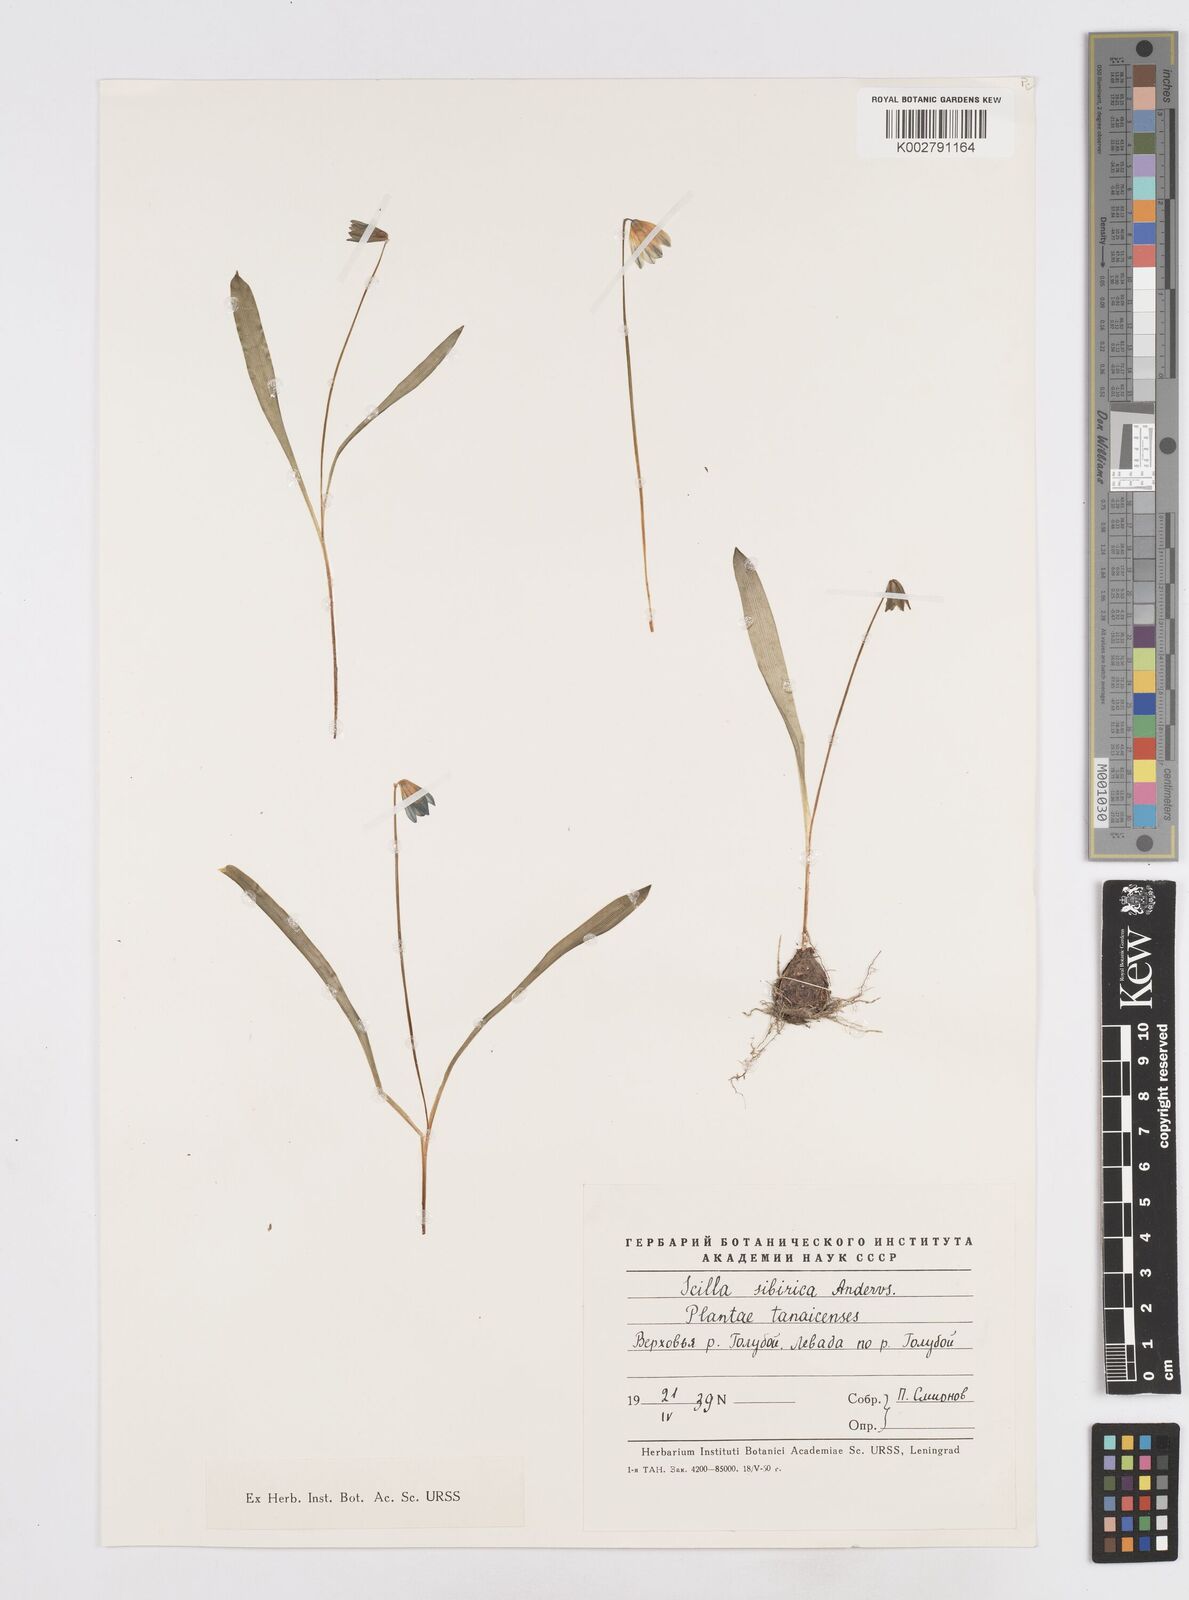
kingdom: Plantae
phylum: Tracheophyta
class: Liliopsida
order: Asparagales
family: Asparagaceae
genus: Scilla
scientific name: Scilla siberica
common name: Siberian squill
